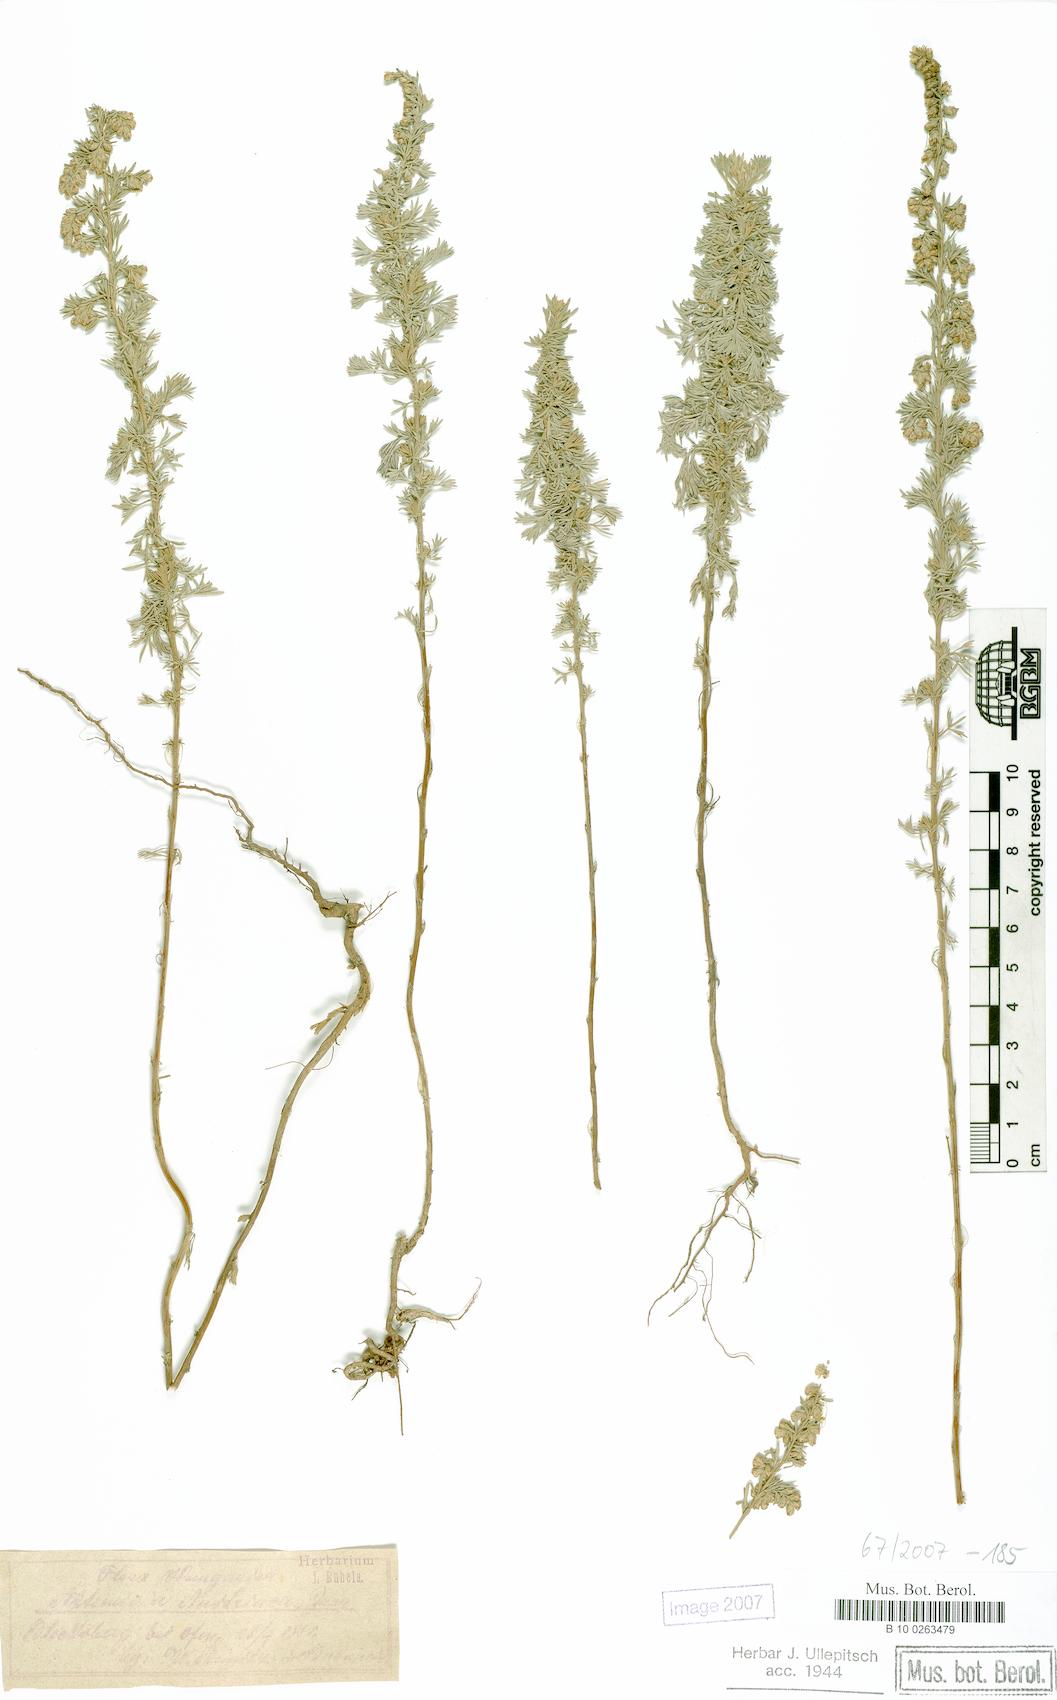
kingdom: Plantae
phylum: Tracheophyta
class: Magnoliopsida
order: Asterales
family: Asteraceae
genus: Artemisia
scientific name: Artemisia austriaca
